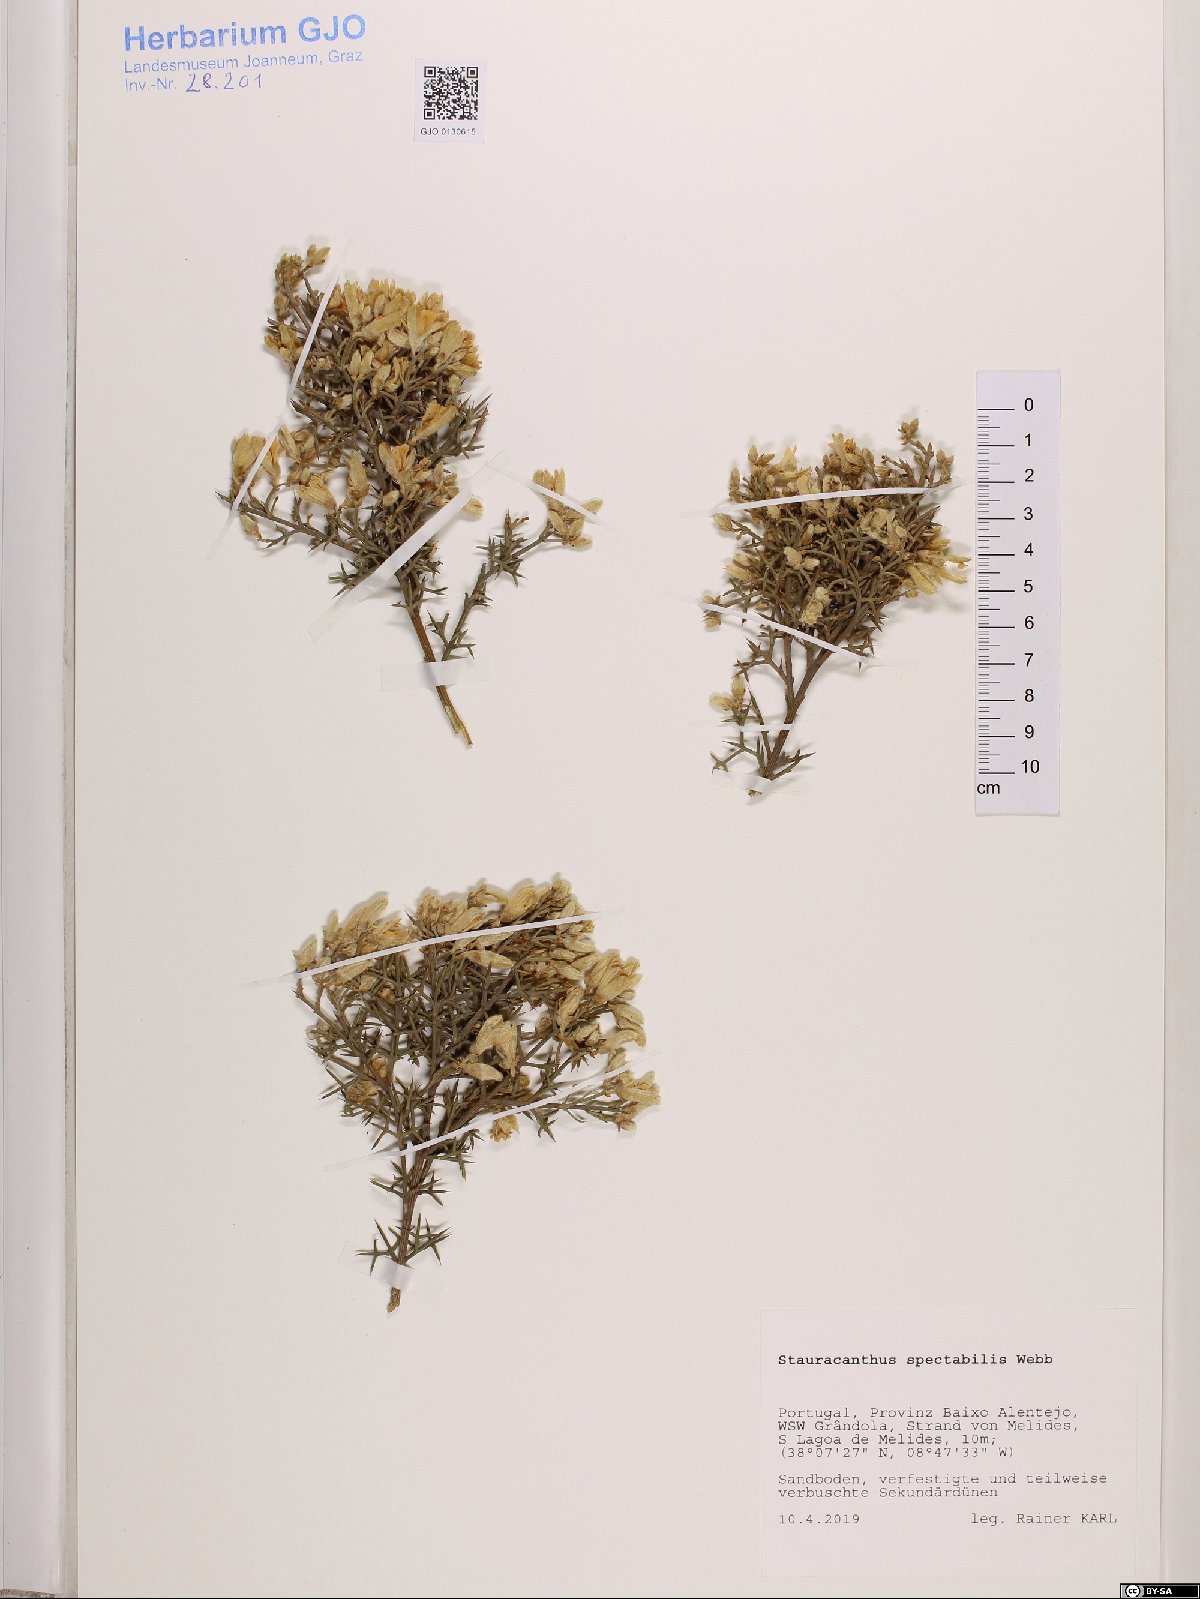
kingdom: Plantae
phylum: Tracheophyta
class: Magnoliopsida
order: Fabales
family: Fabaceae
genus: Stauracanthus
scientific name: Stauracanthus spectabilis
